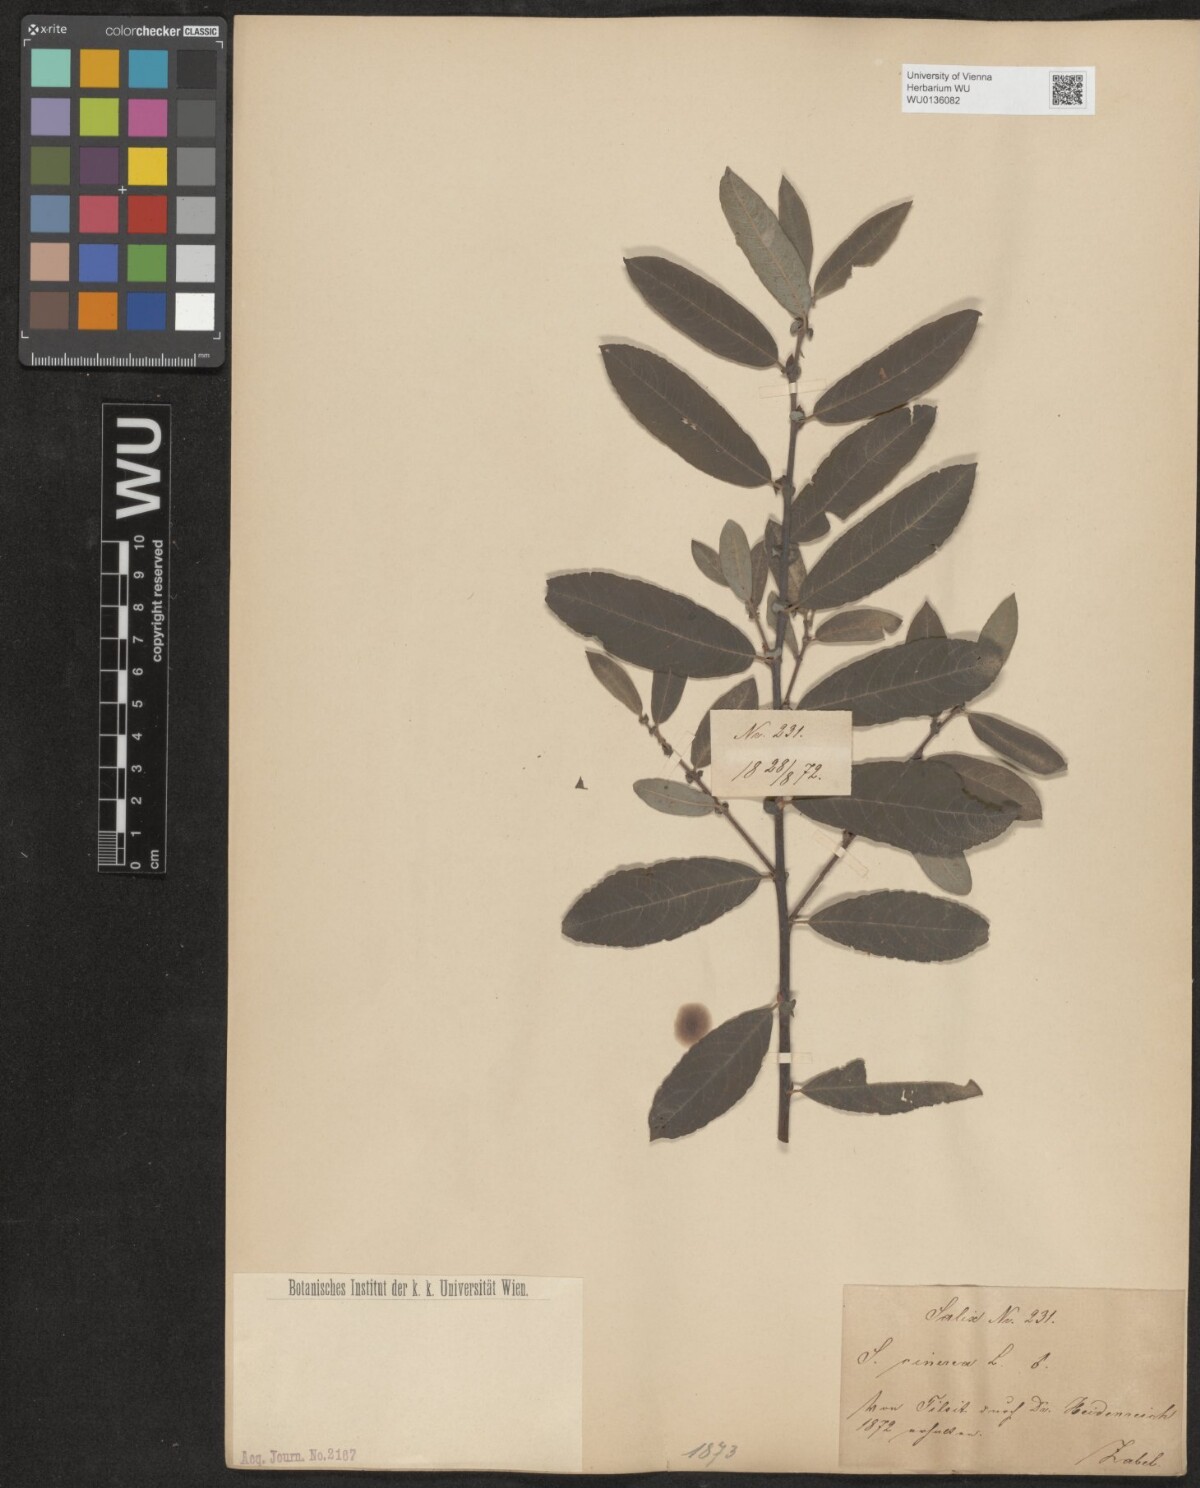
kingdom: Plantae
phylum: Tracheophyta
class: Magnoliopsida
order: Malpighiales
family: Salicaceae
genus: Salix
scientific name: Salix cinerea
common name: Common sallow
